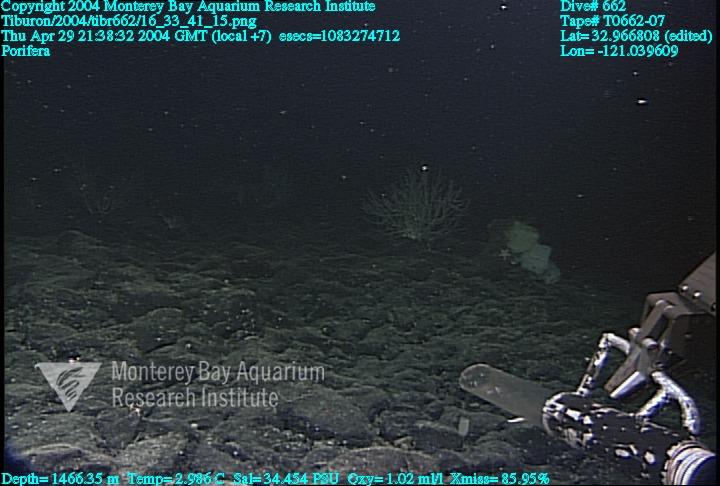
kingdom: Animalia
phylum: Porifera
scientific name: Porifera
